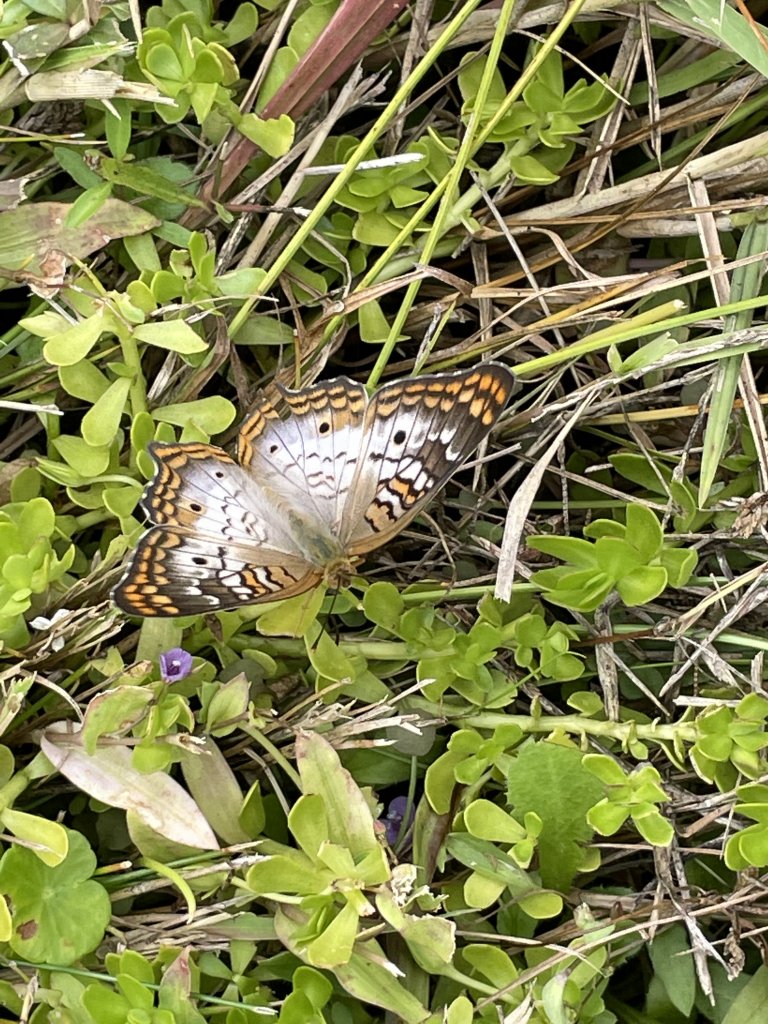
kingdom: Animalia
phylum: Arthropoda
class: Insecta
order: Lepidoptera
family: Nymphalidae
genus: Anartia
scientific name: Anartia jatrophae
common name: White Peacock
